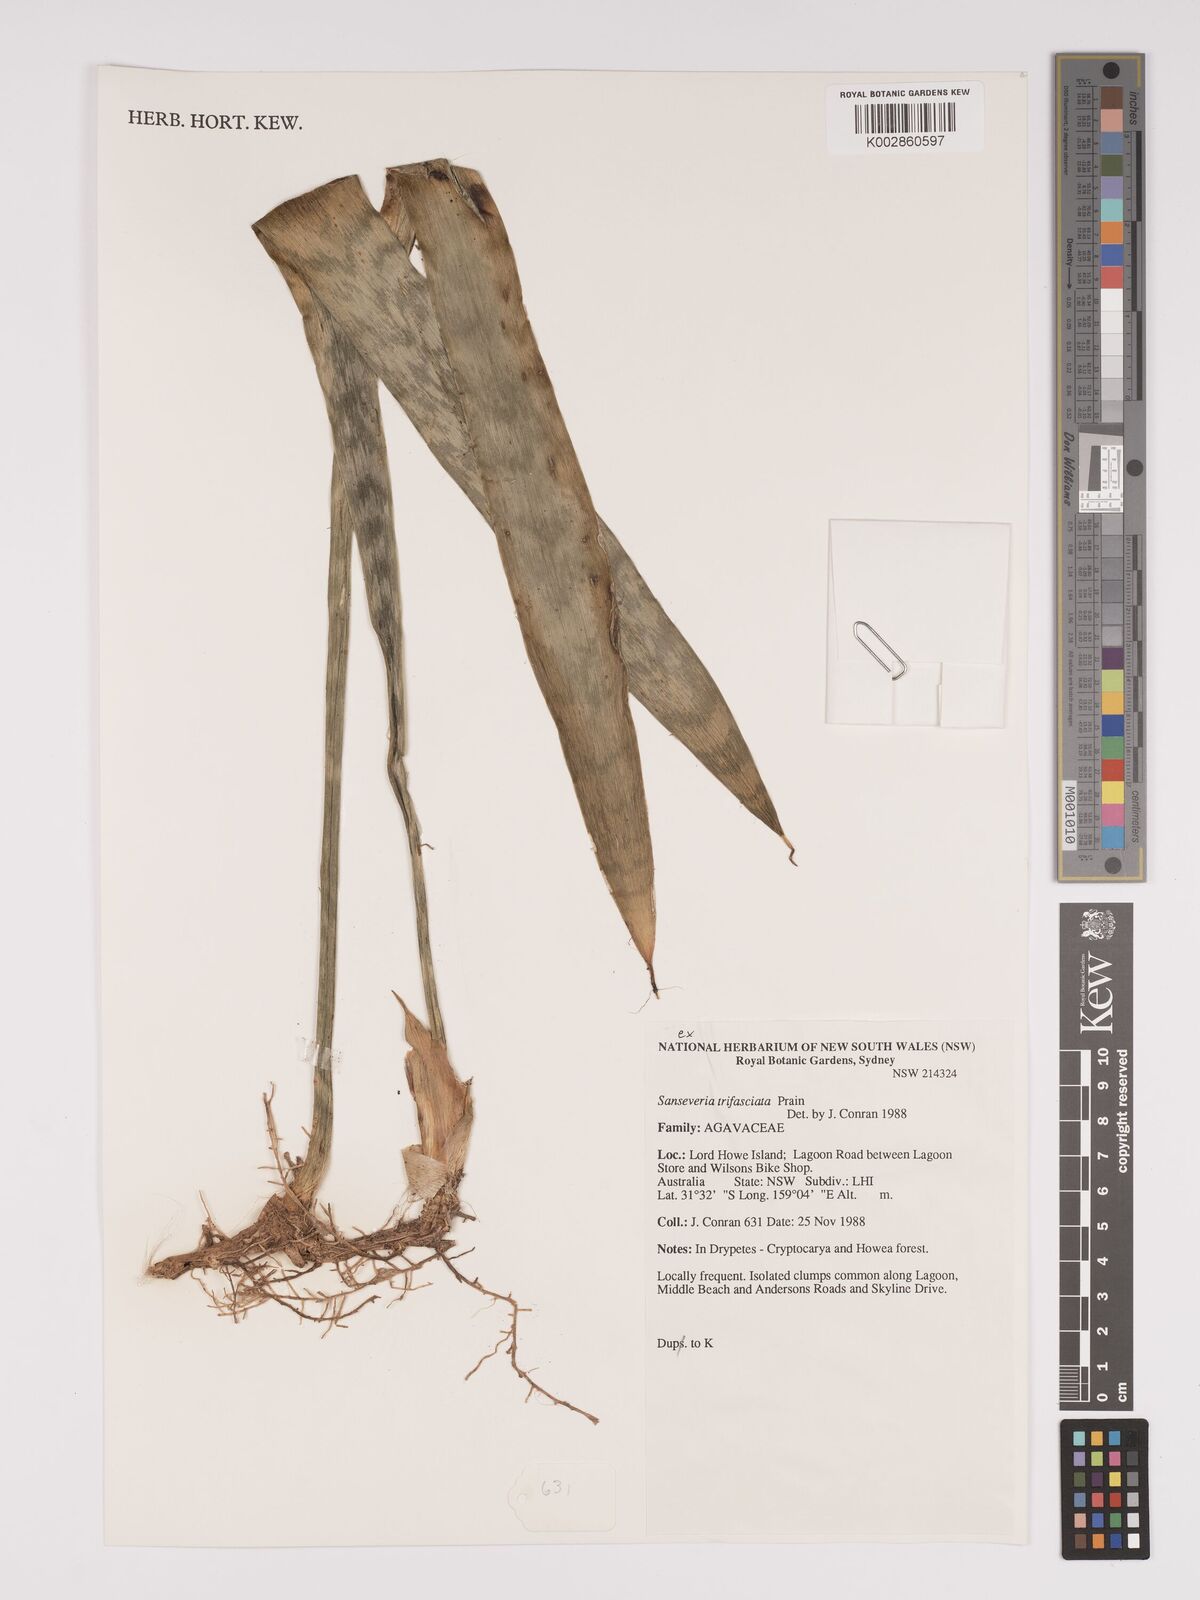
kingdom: Plantae
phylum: Tracheophyta
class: Liliopsida
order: Asparagales
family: Asparagaceae
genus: Dracaena
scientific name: Dracaena trifasciata
